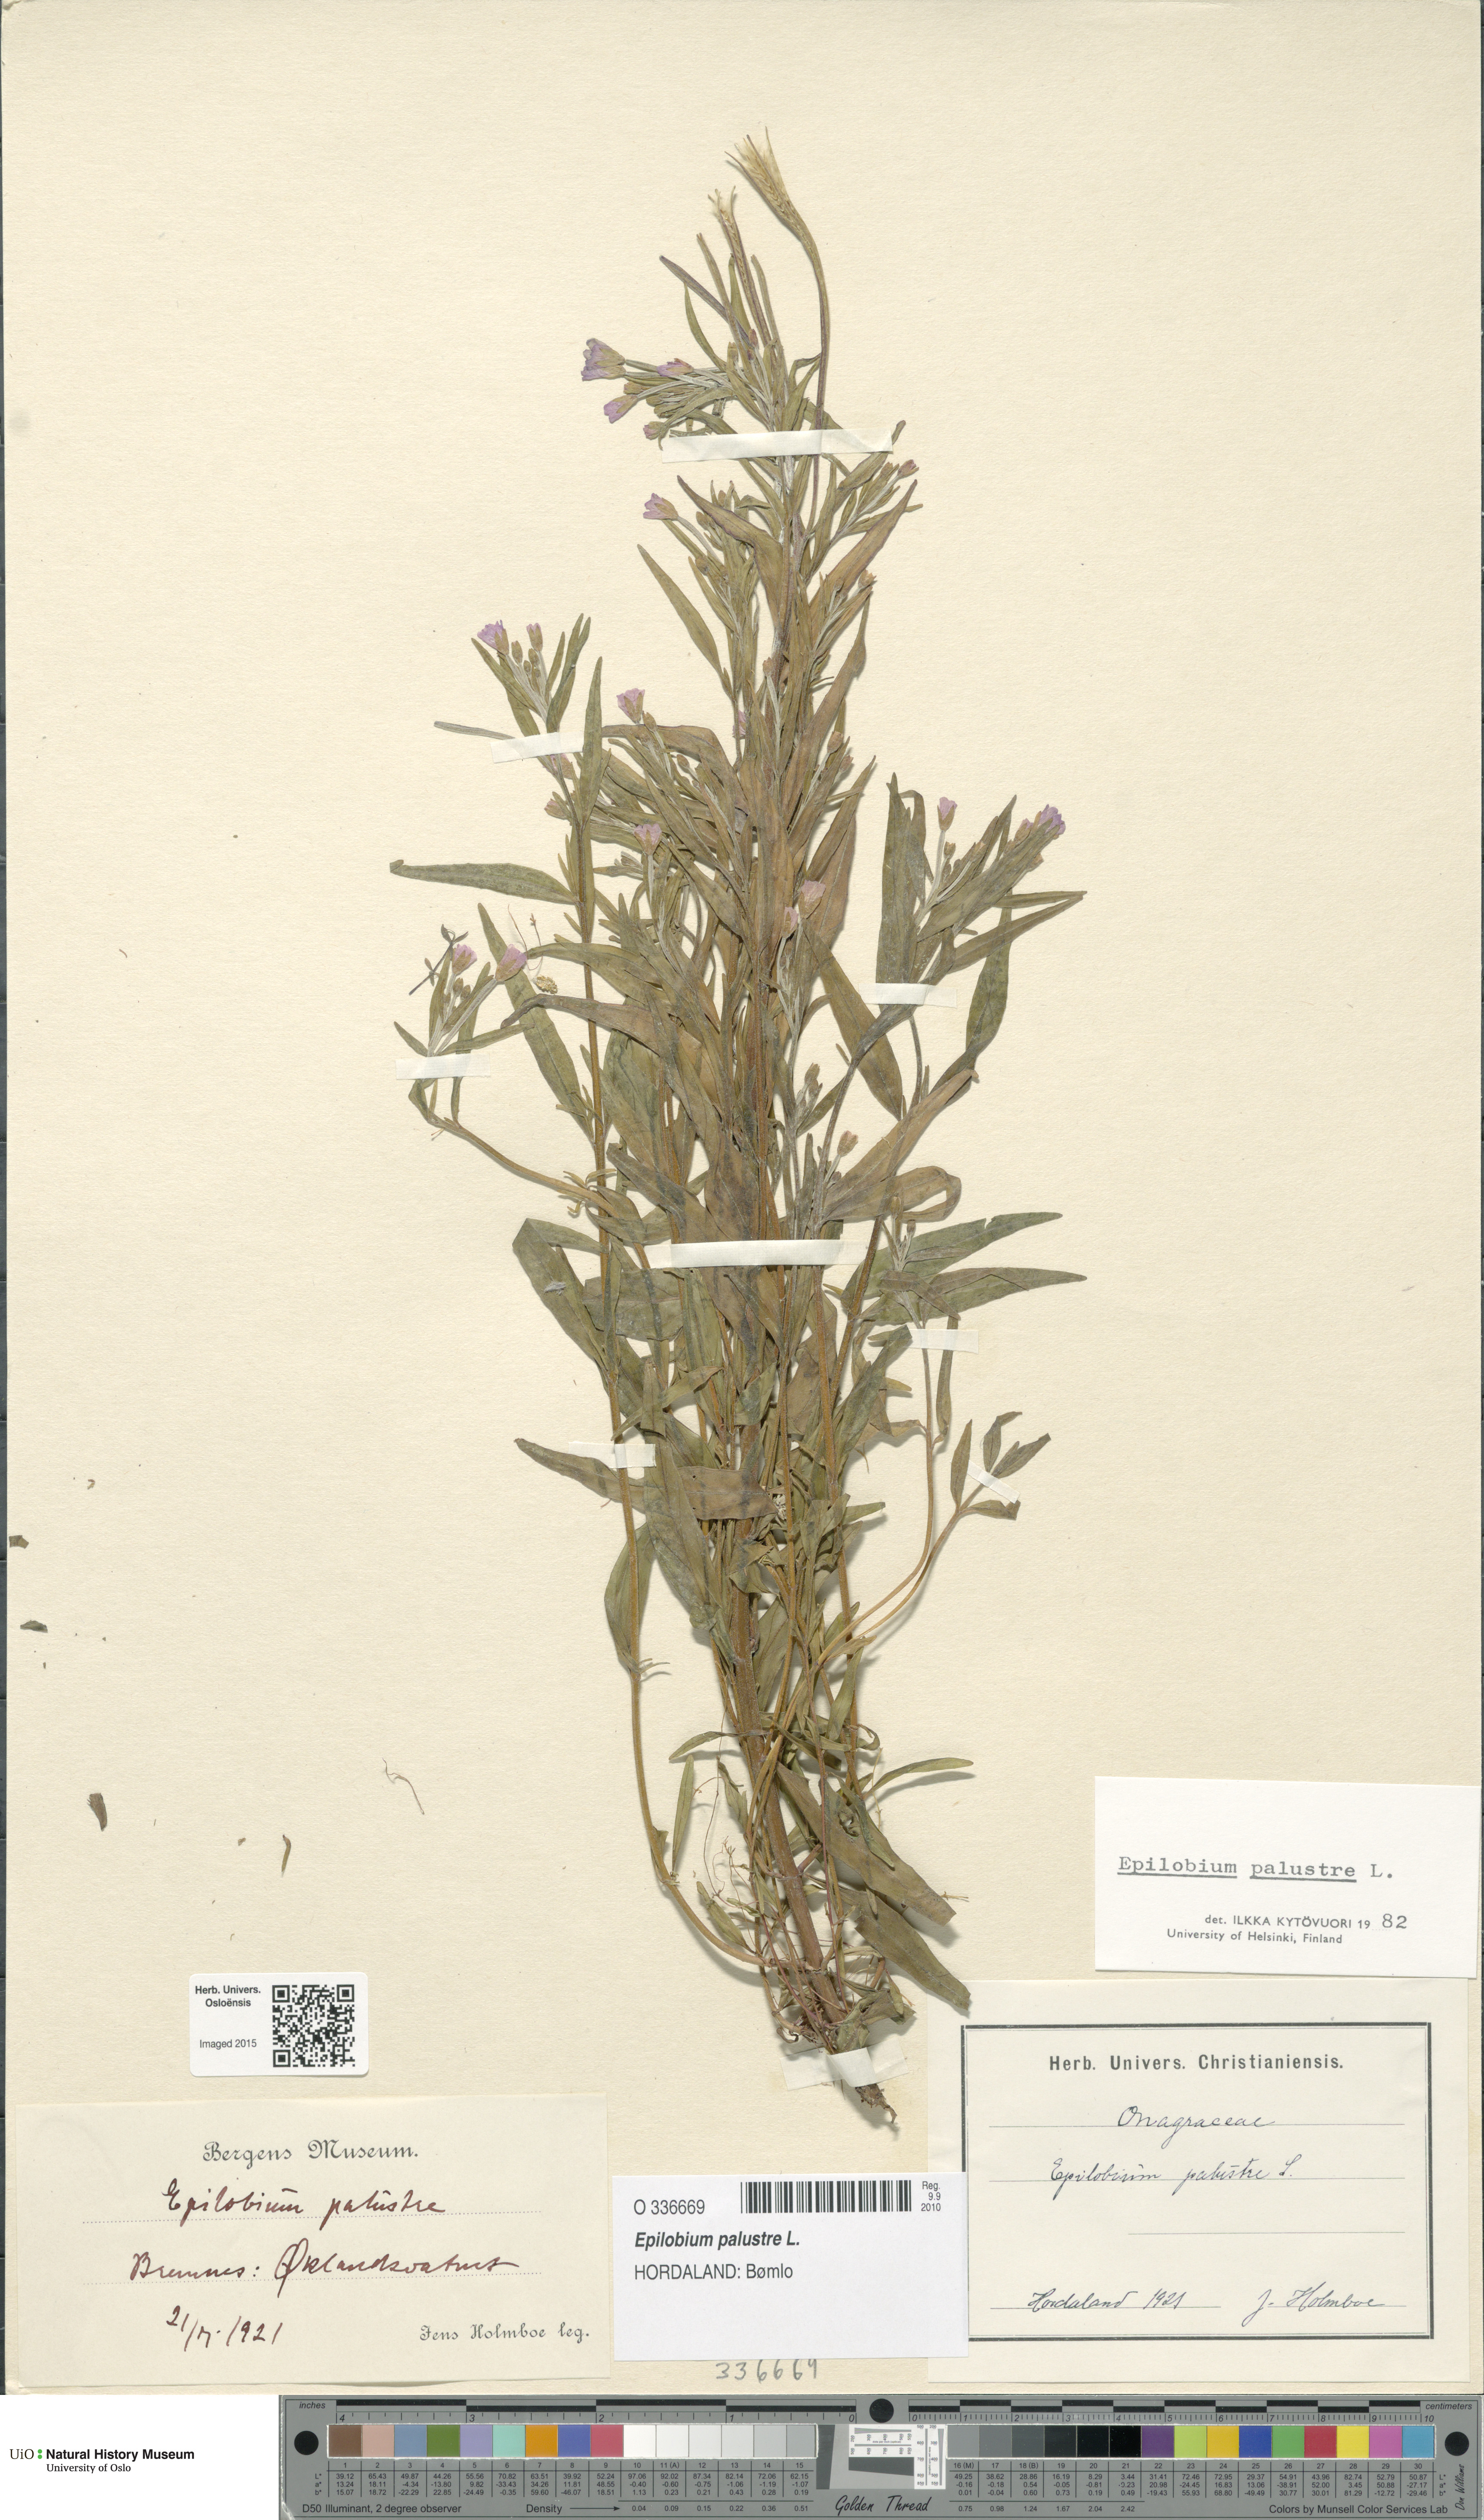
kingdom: Plantae
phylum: Tracheophyta
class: Magnoliopsida
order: Myrtales
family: Onagraceae
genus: Epilobium
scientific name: Epilobium palustre
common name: Marsh willowherb
